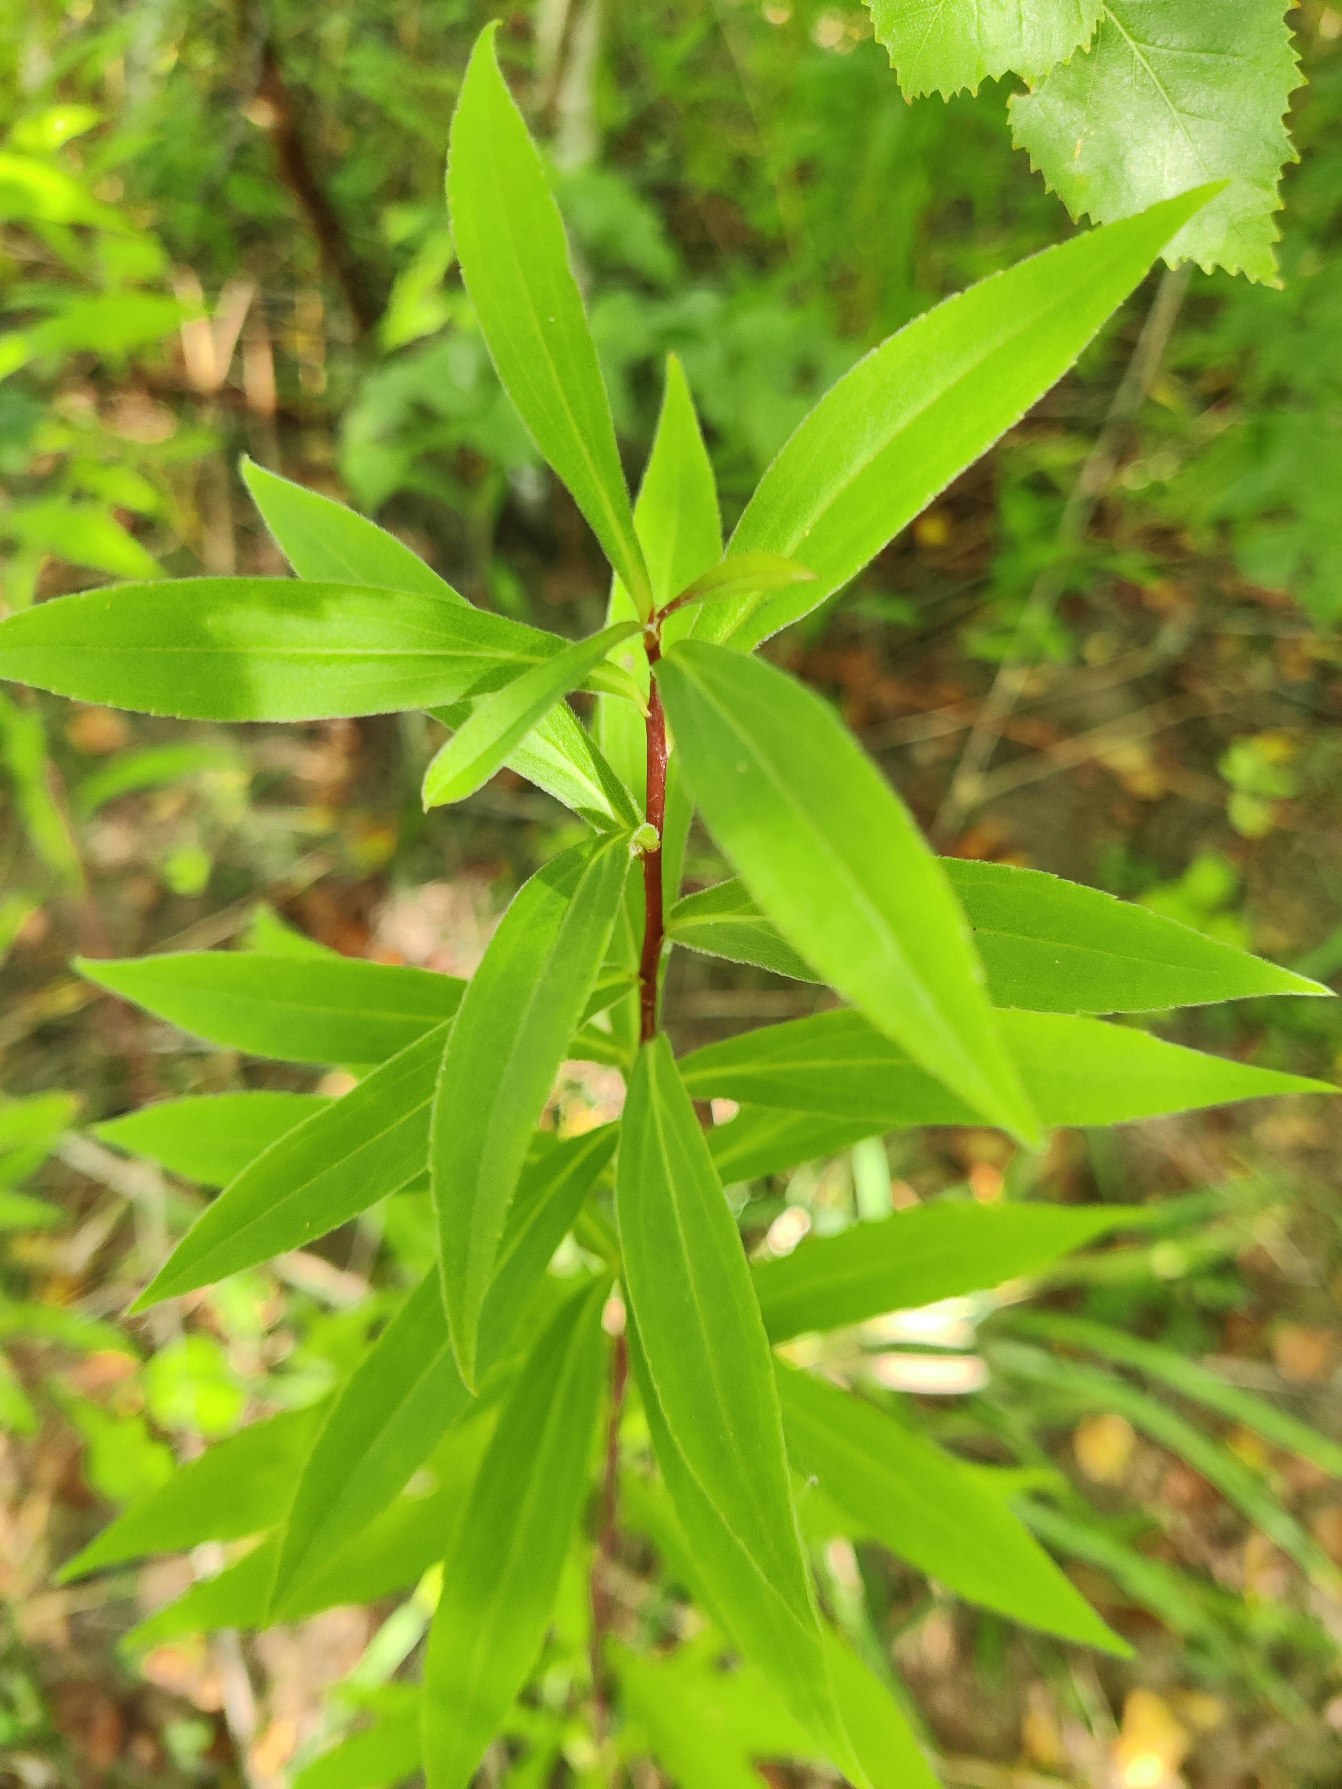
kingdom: Plantae
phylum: Tracheophyta
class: Magnoliopsida
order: Asterales
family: Asteraceae
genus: Solidago
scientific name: Solidago gigantea
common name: Sildig gyldenris
